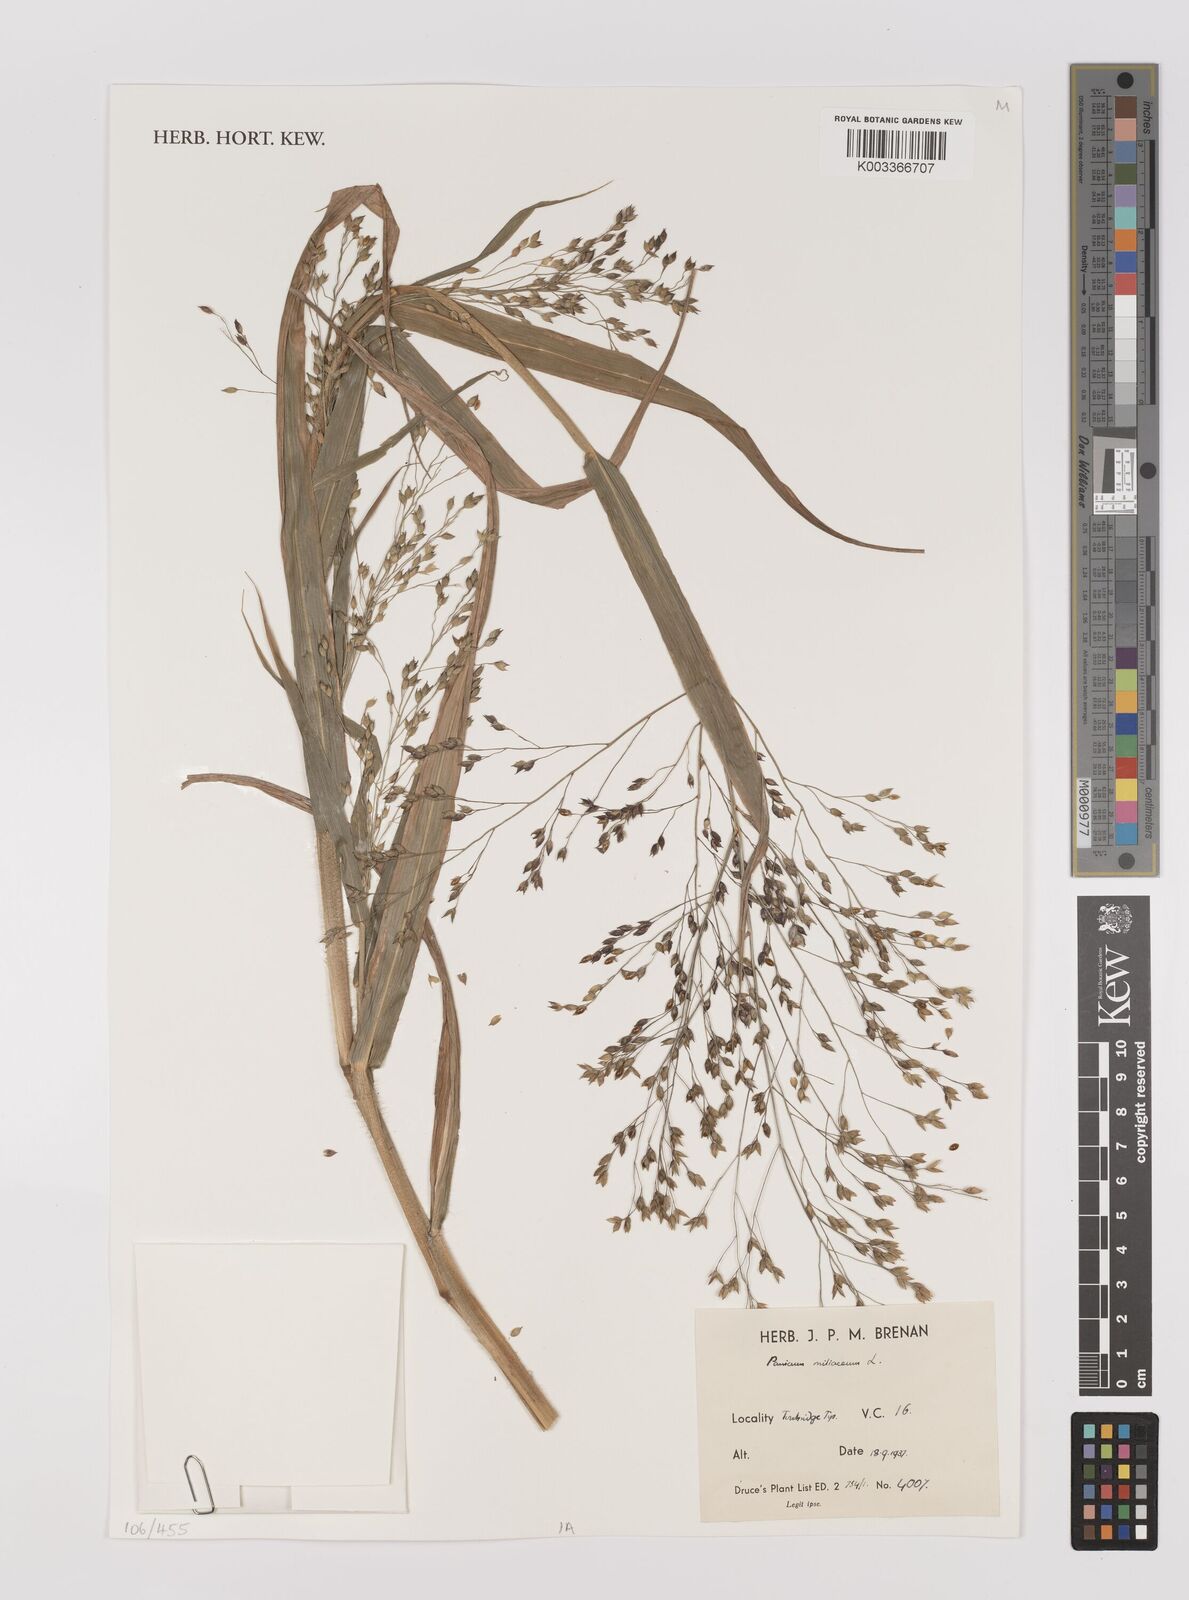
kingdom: Plantae
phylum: Tracheophyta
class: Liliopsida
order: Poales
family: Poaceae
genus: Panicum
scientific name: Panicum miliaceum
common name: Common millet
